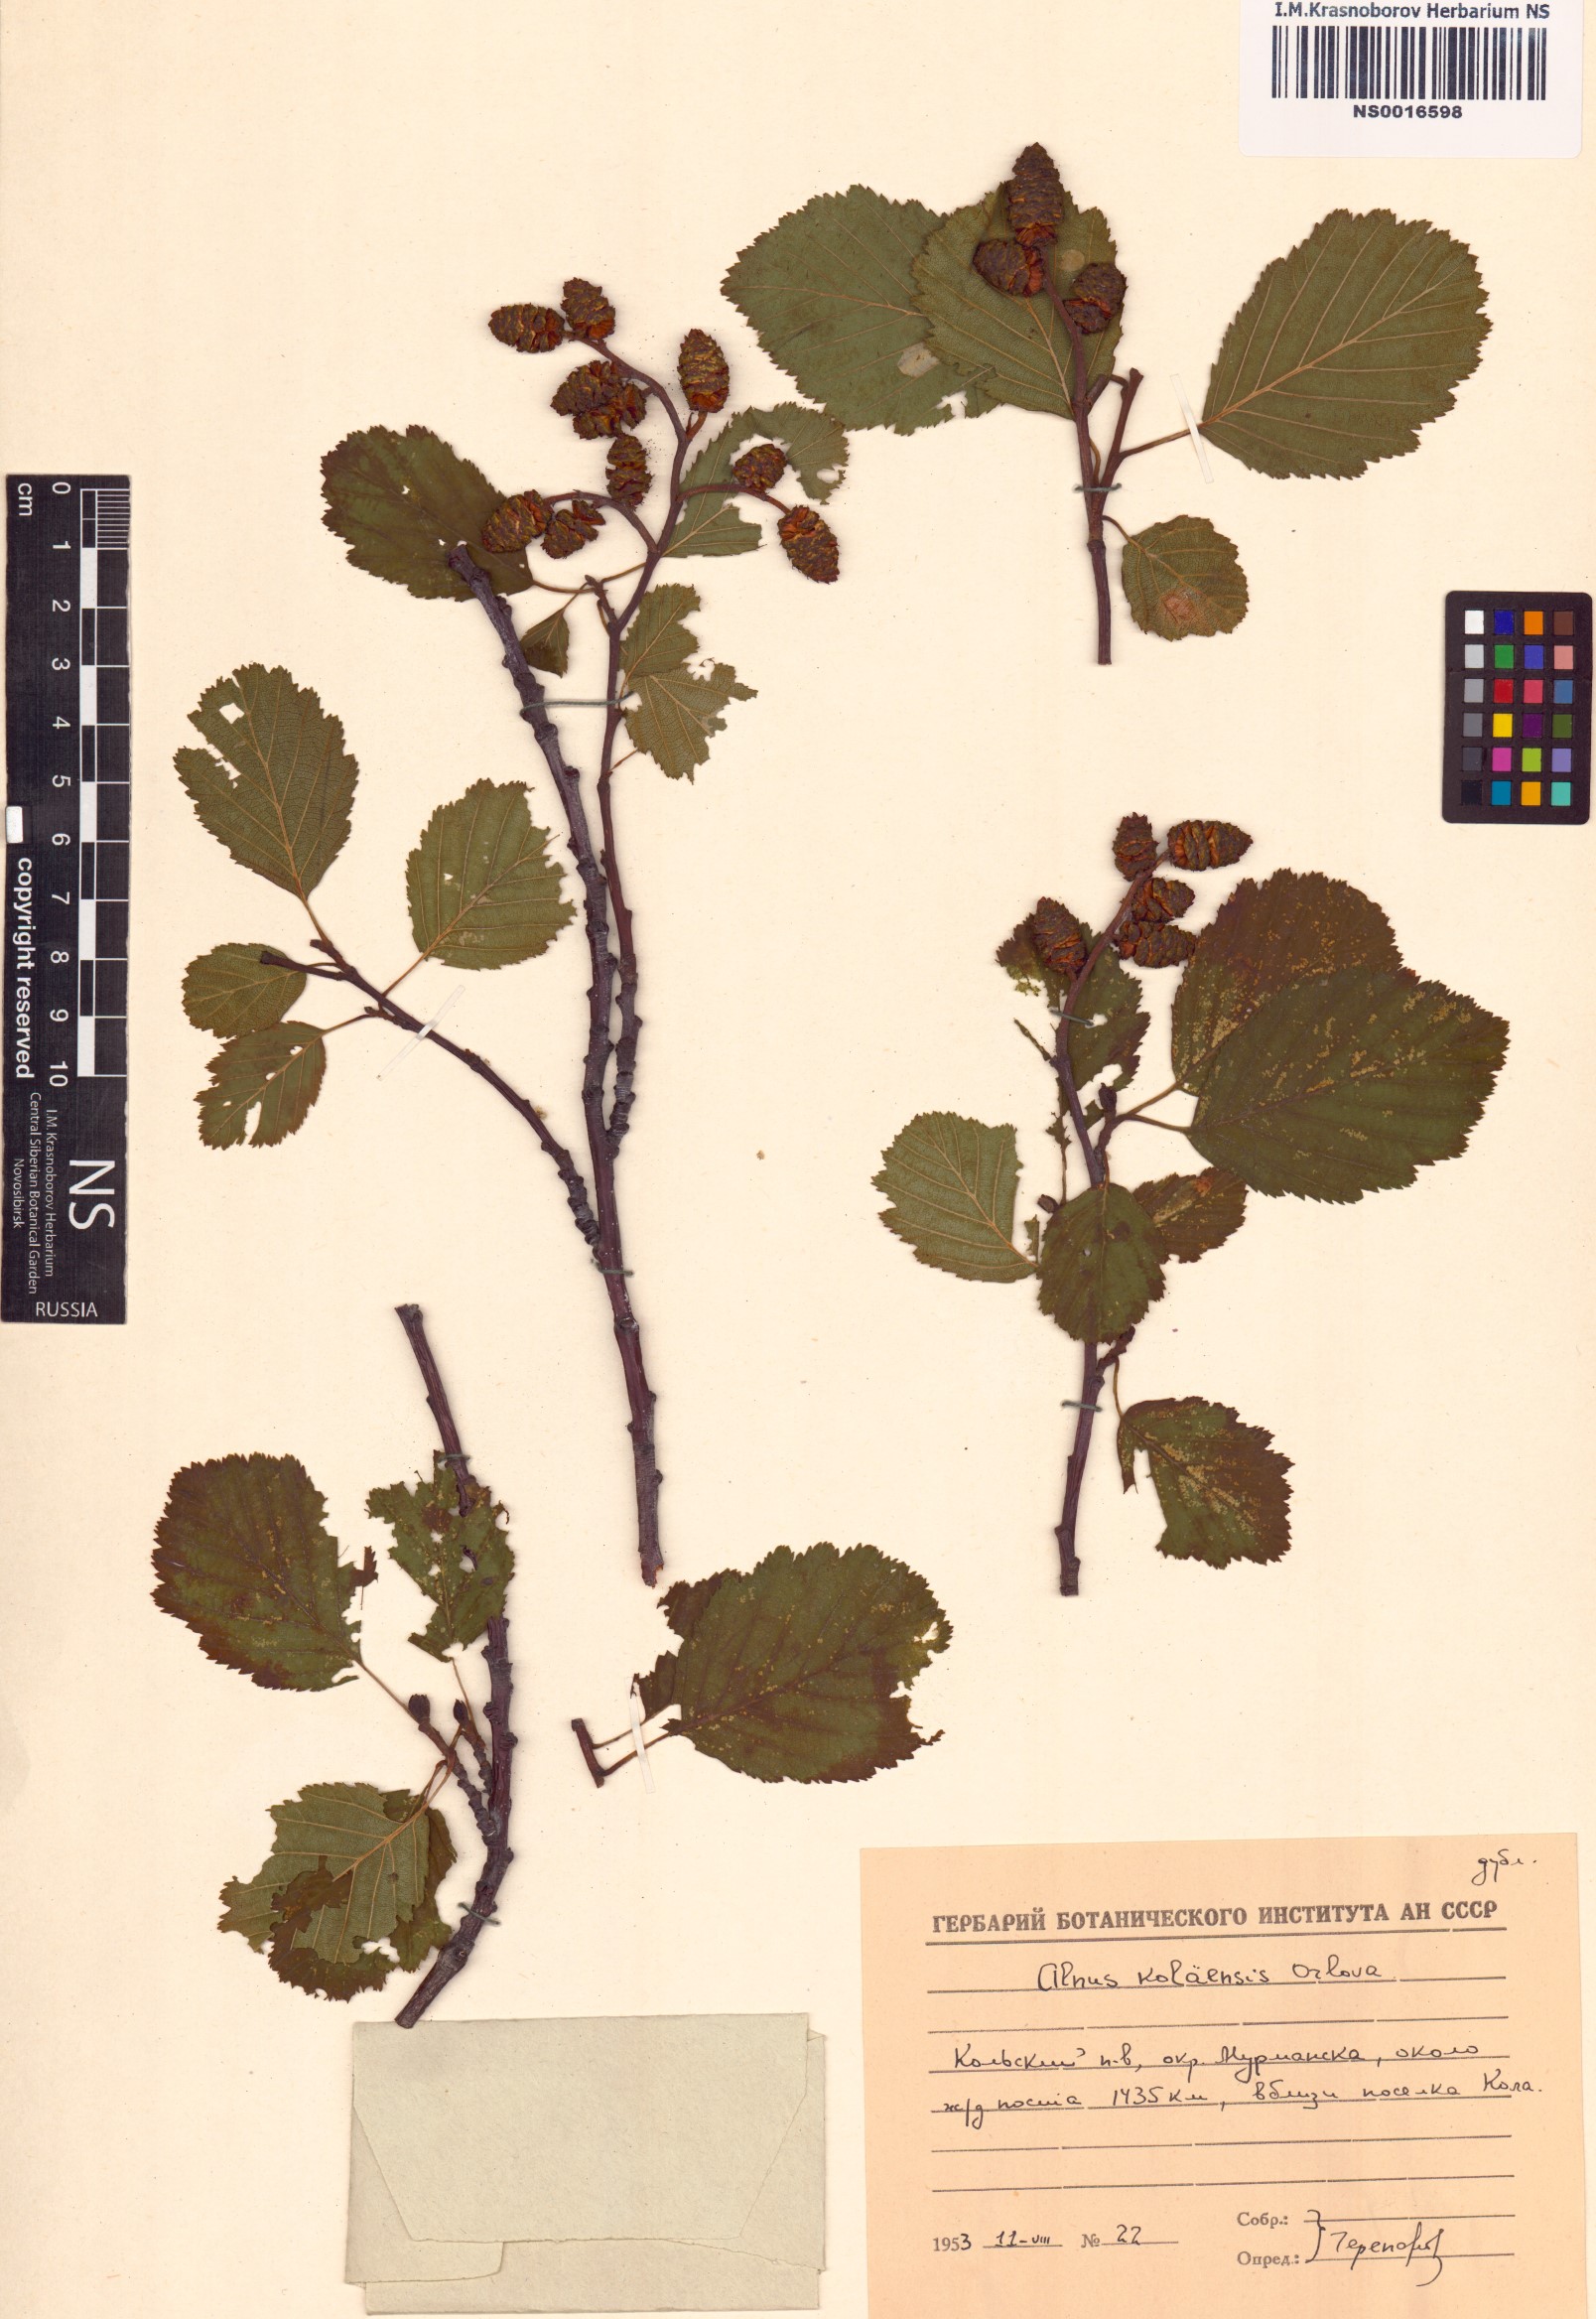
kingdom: Plantae
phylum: Tracheophyta
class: Magnoliopsida
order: Fagales
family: Betulaceae
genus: Alnus
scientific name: Alnus incana
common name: Grey alder
